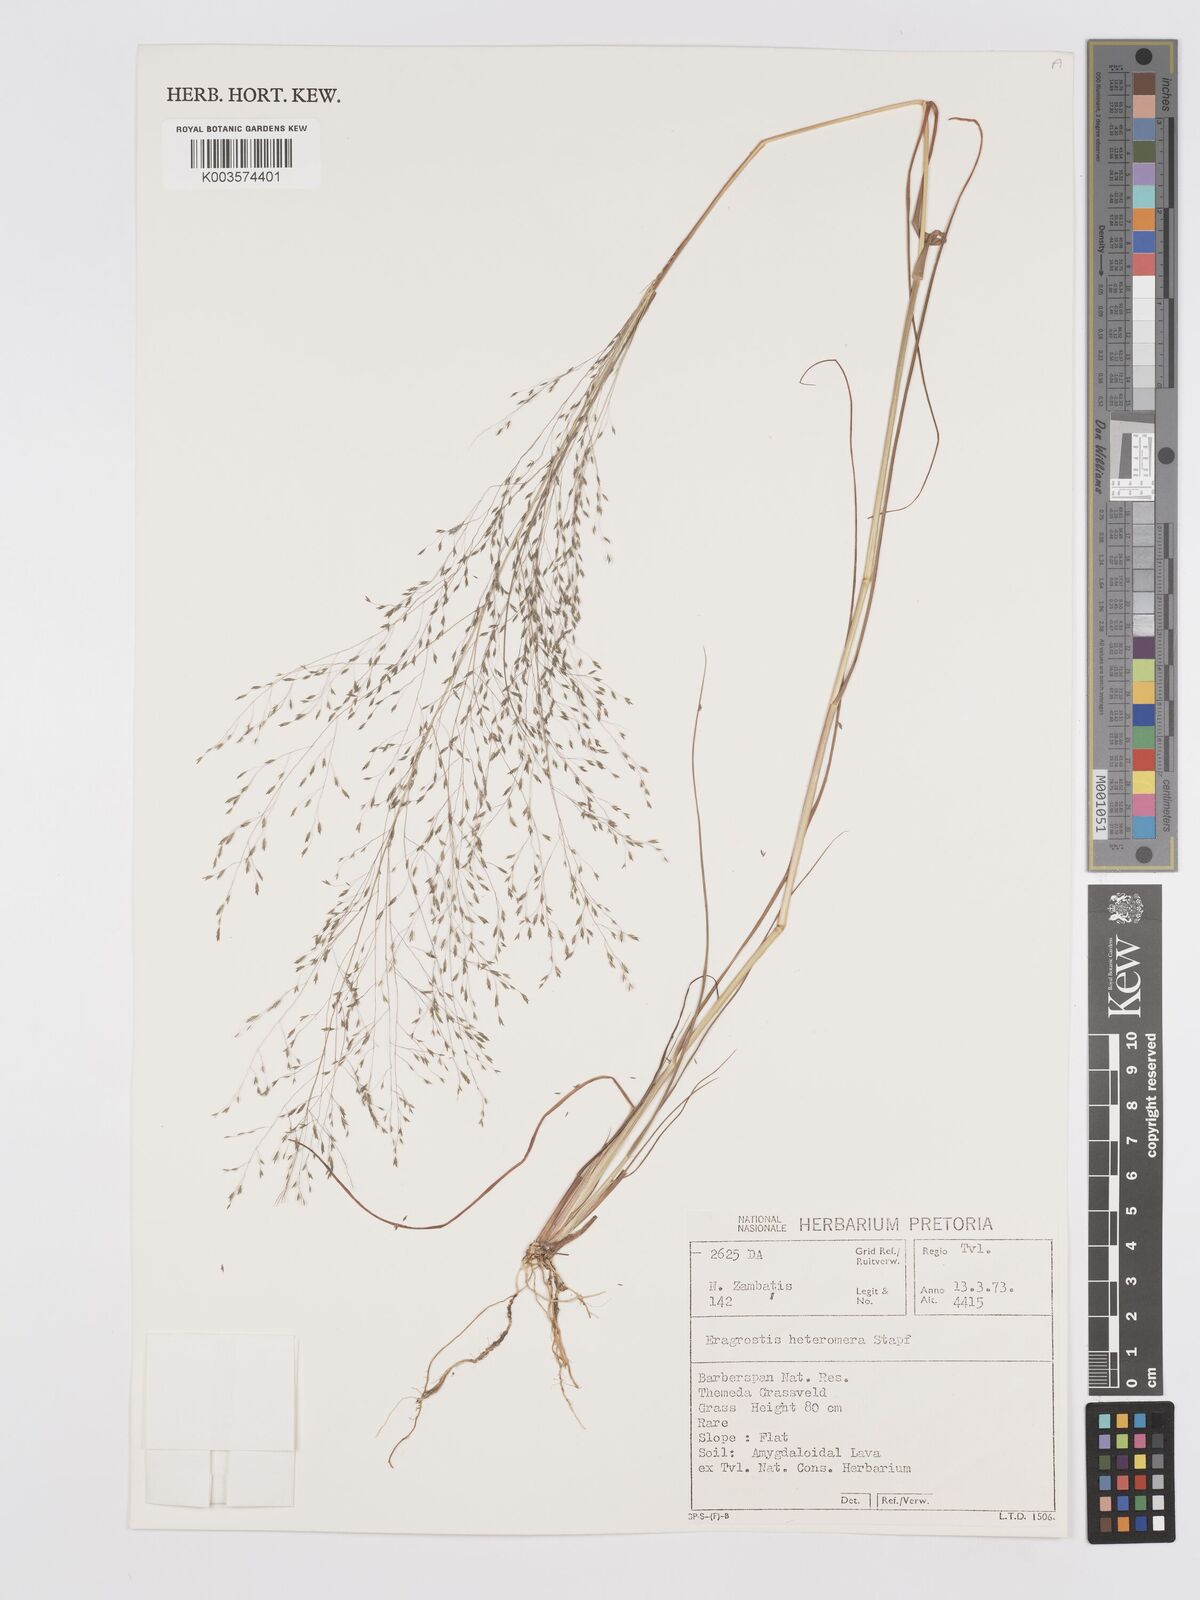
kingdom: Plantae
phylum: Tracheophyta
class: Liliopsida
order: Poales
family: Poaceae
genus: Eragrostis
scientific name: Eragrostis heteromera
